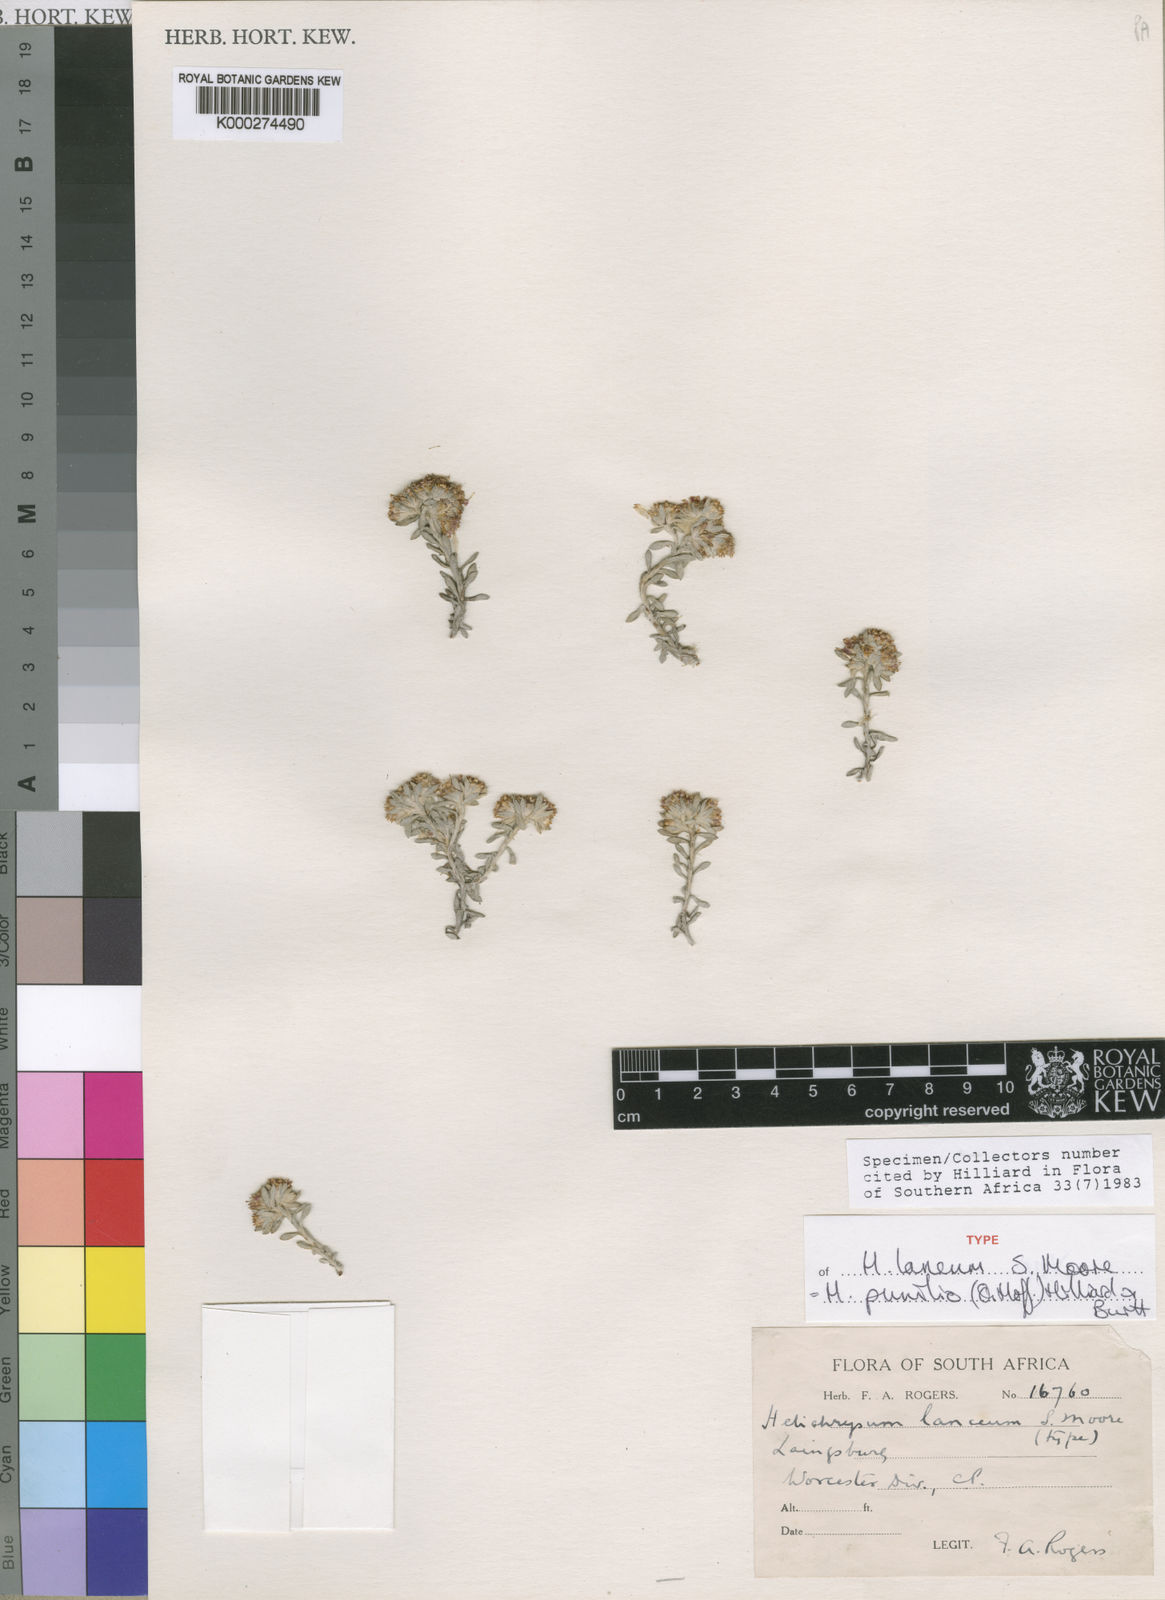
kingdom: Plantae
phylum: Tracheophyta
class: Magnoliopsida
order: Asterales
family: Asteraceae
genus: Helichrysum
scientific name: Helichrysum pumilio
